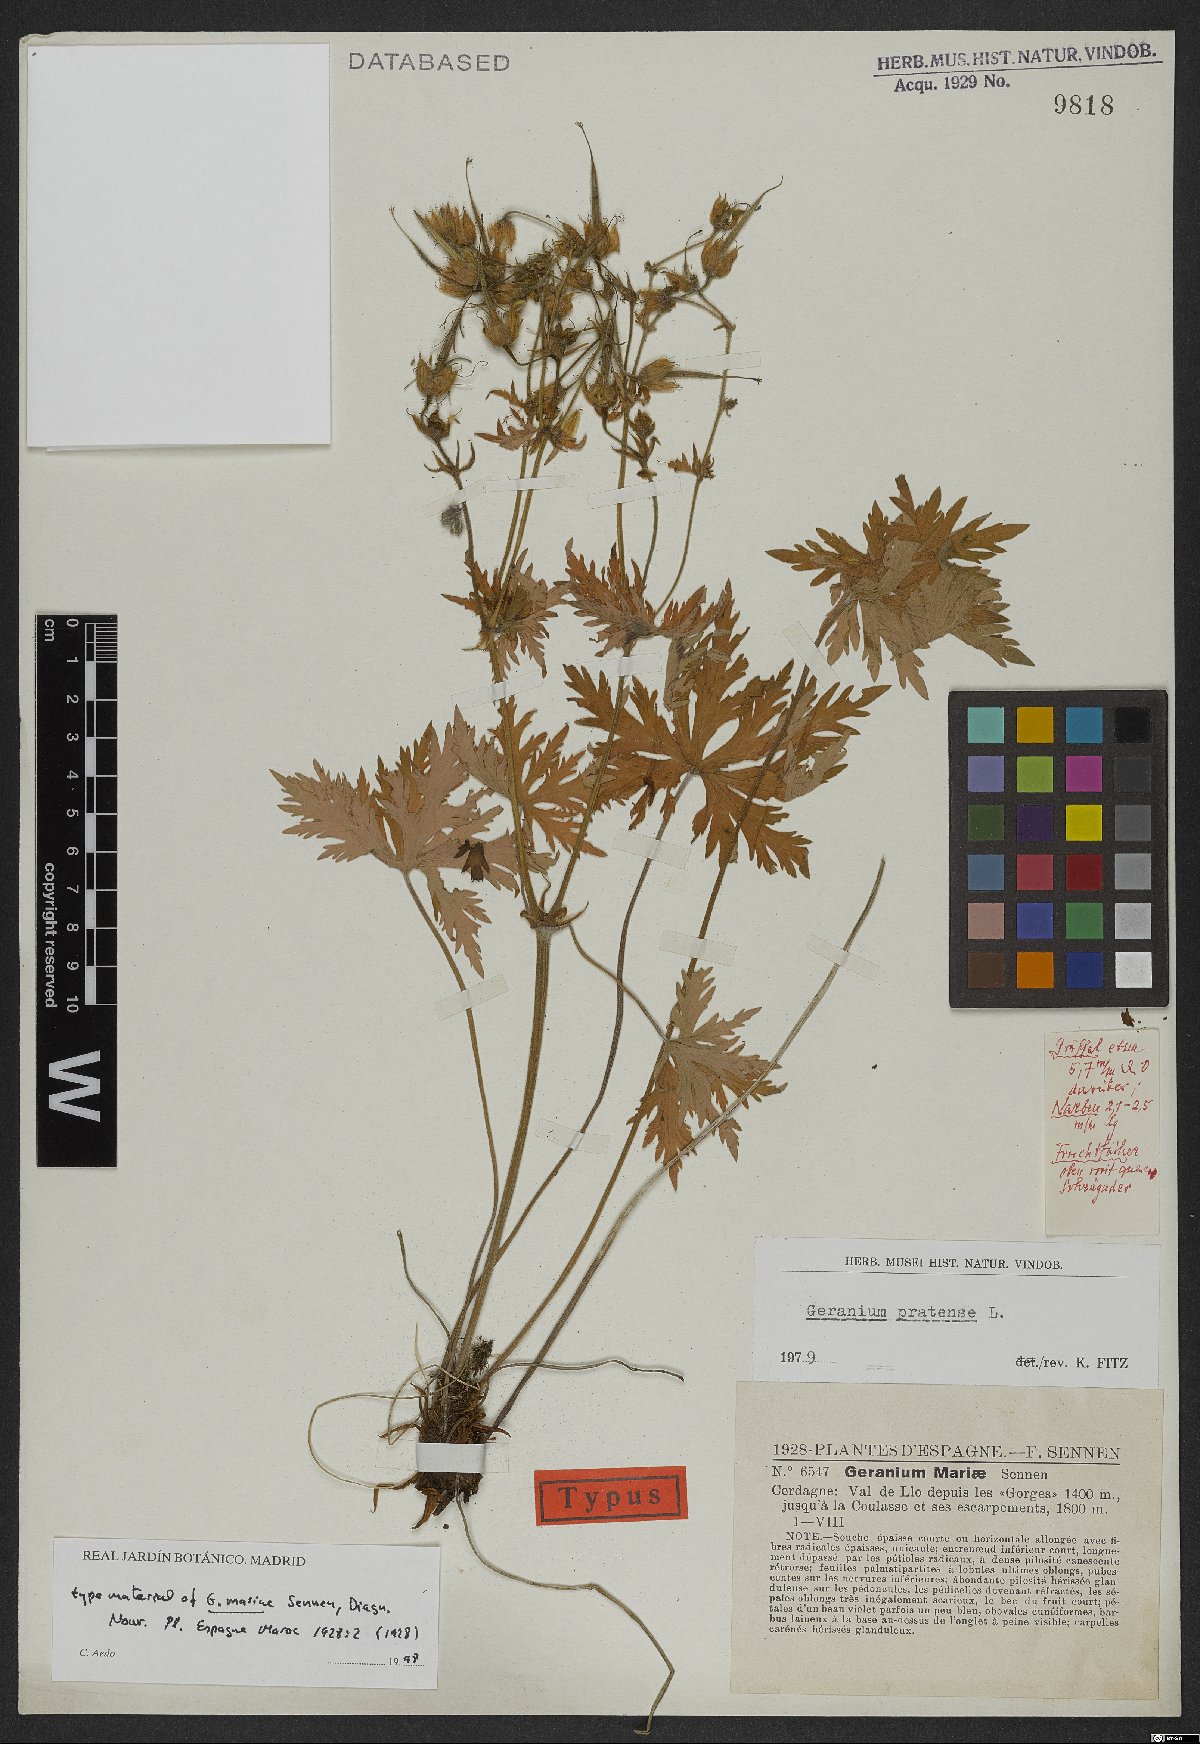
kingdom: Plantae
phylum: Tracheophyta
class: Magnoliopsida
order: Geraniales
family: Geraniaceae
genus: Geranium
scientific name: Geranium pratense
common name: Meadow crane's-bill
